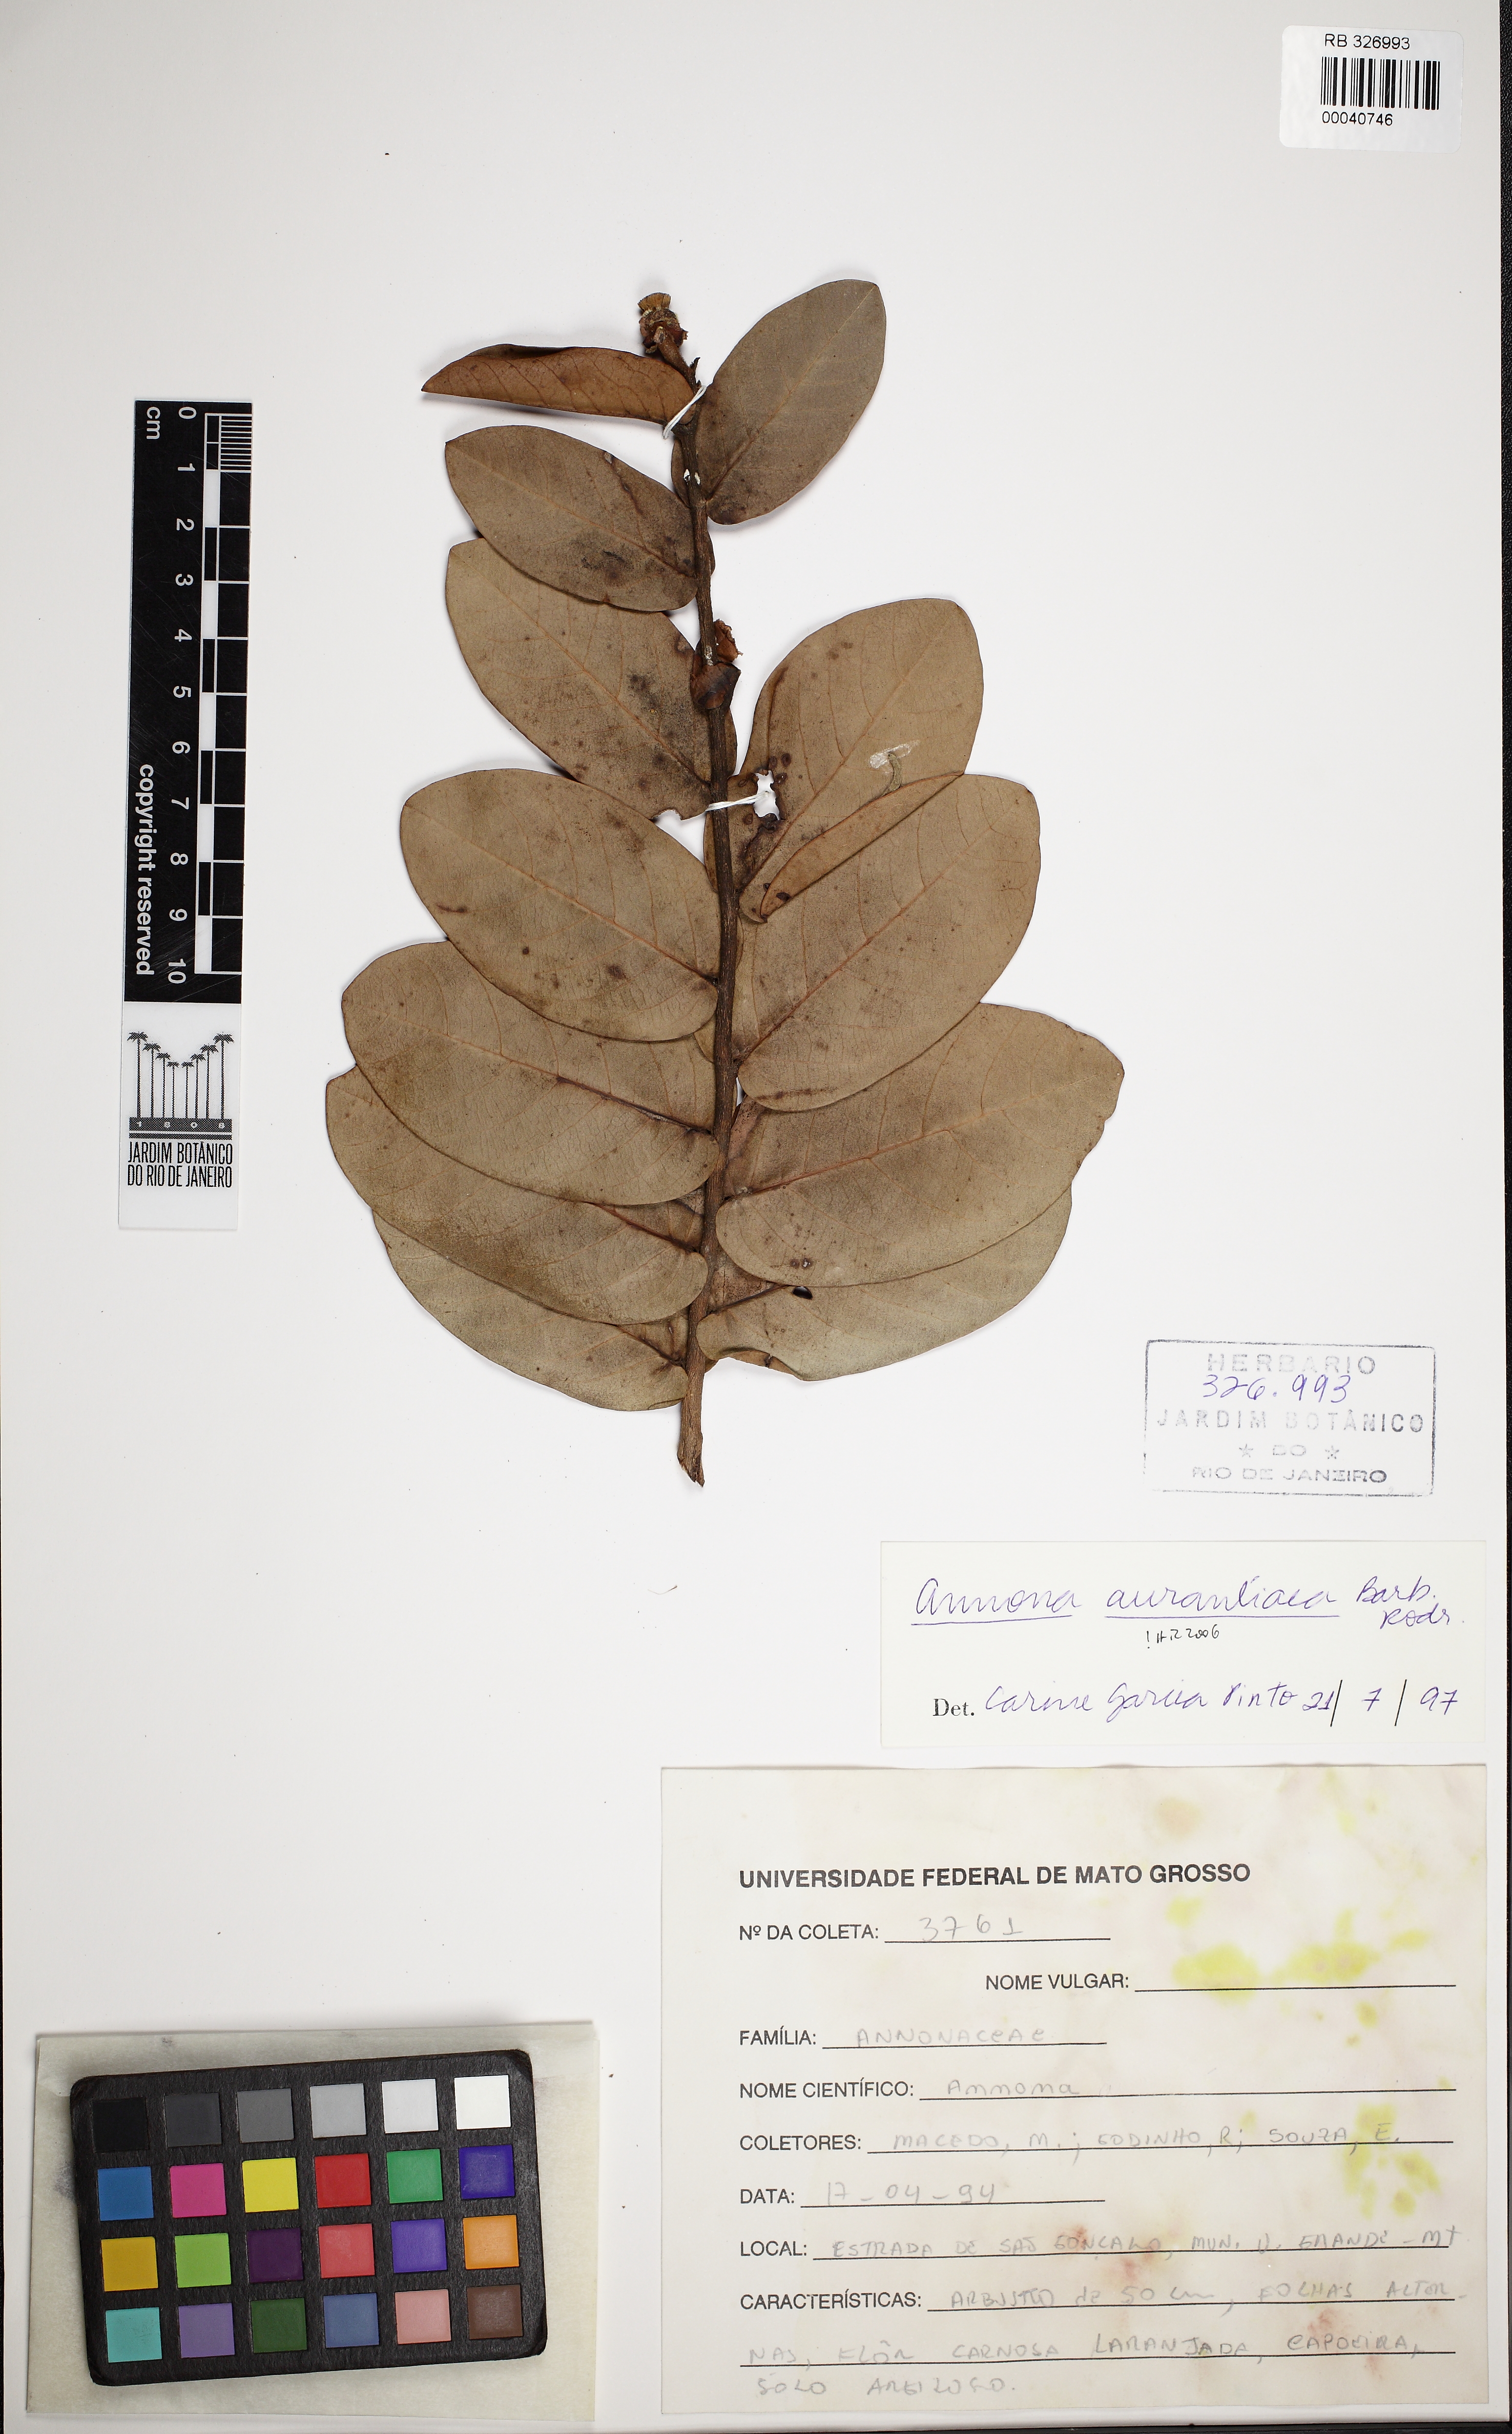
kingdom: Plantae
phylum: Tracheophyta
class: Magnoliopsida
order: Magnoliales
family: Annonaceae
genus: Annona
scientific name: Annona aurantiaca
